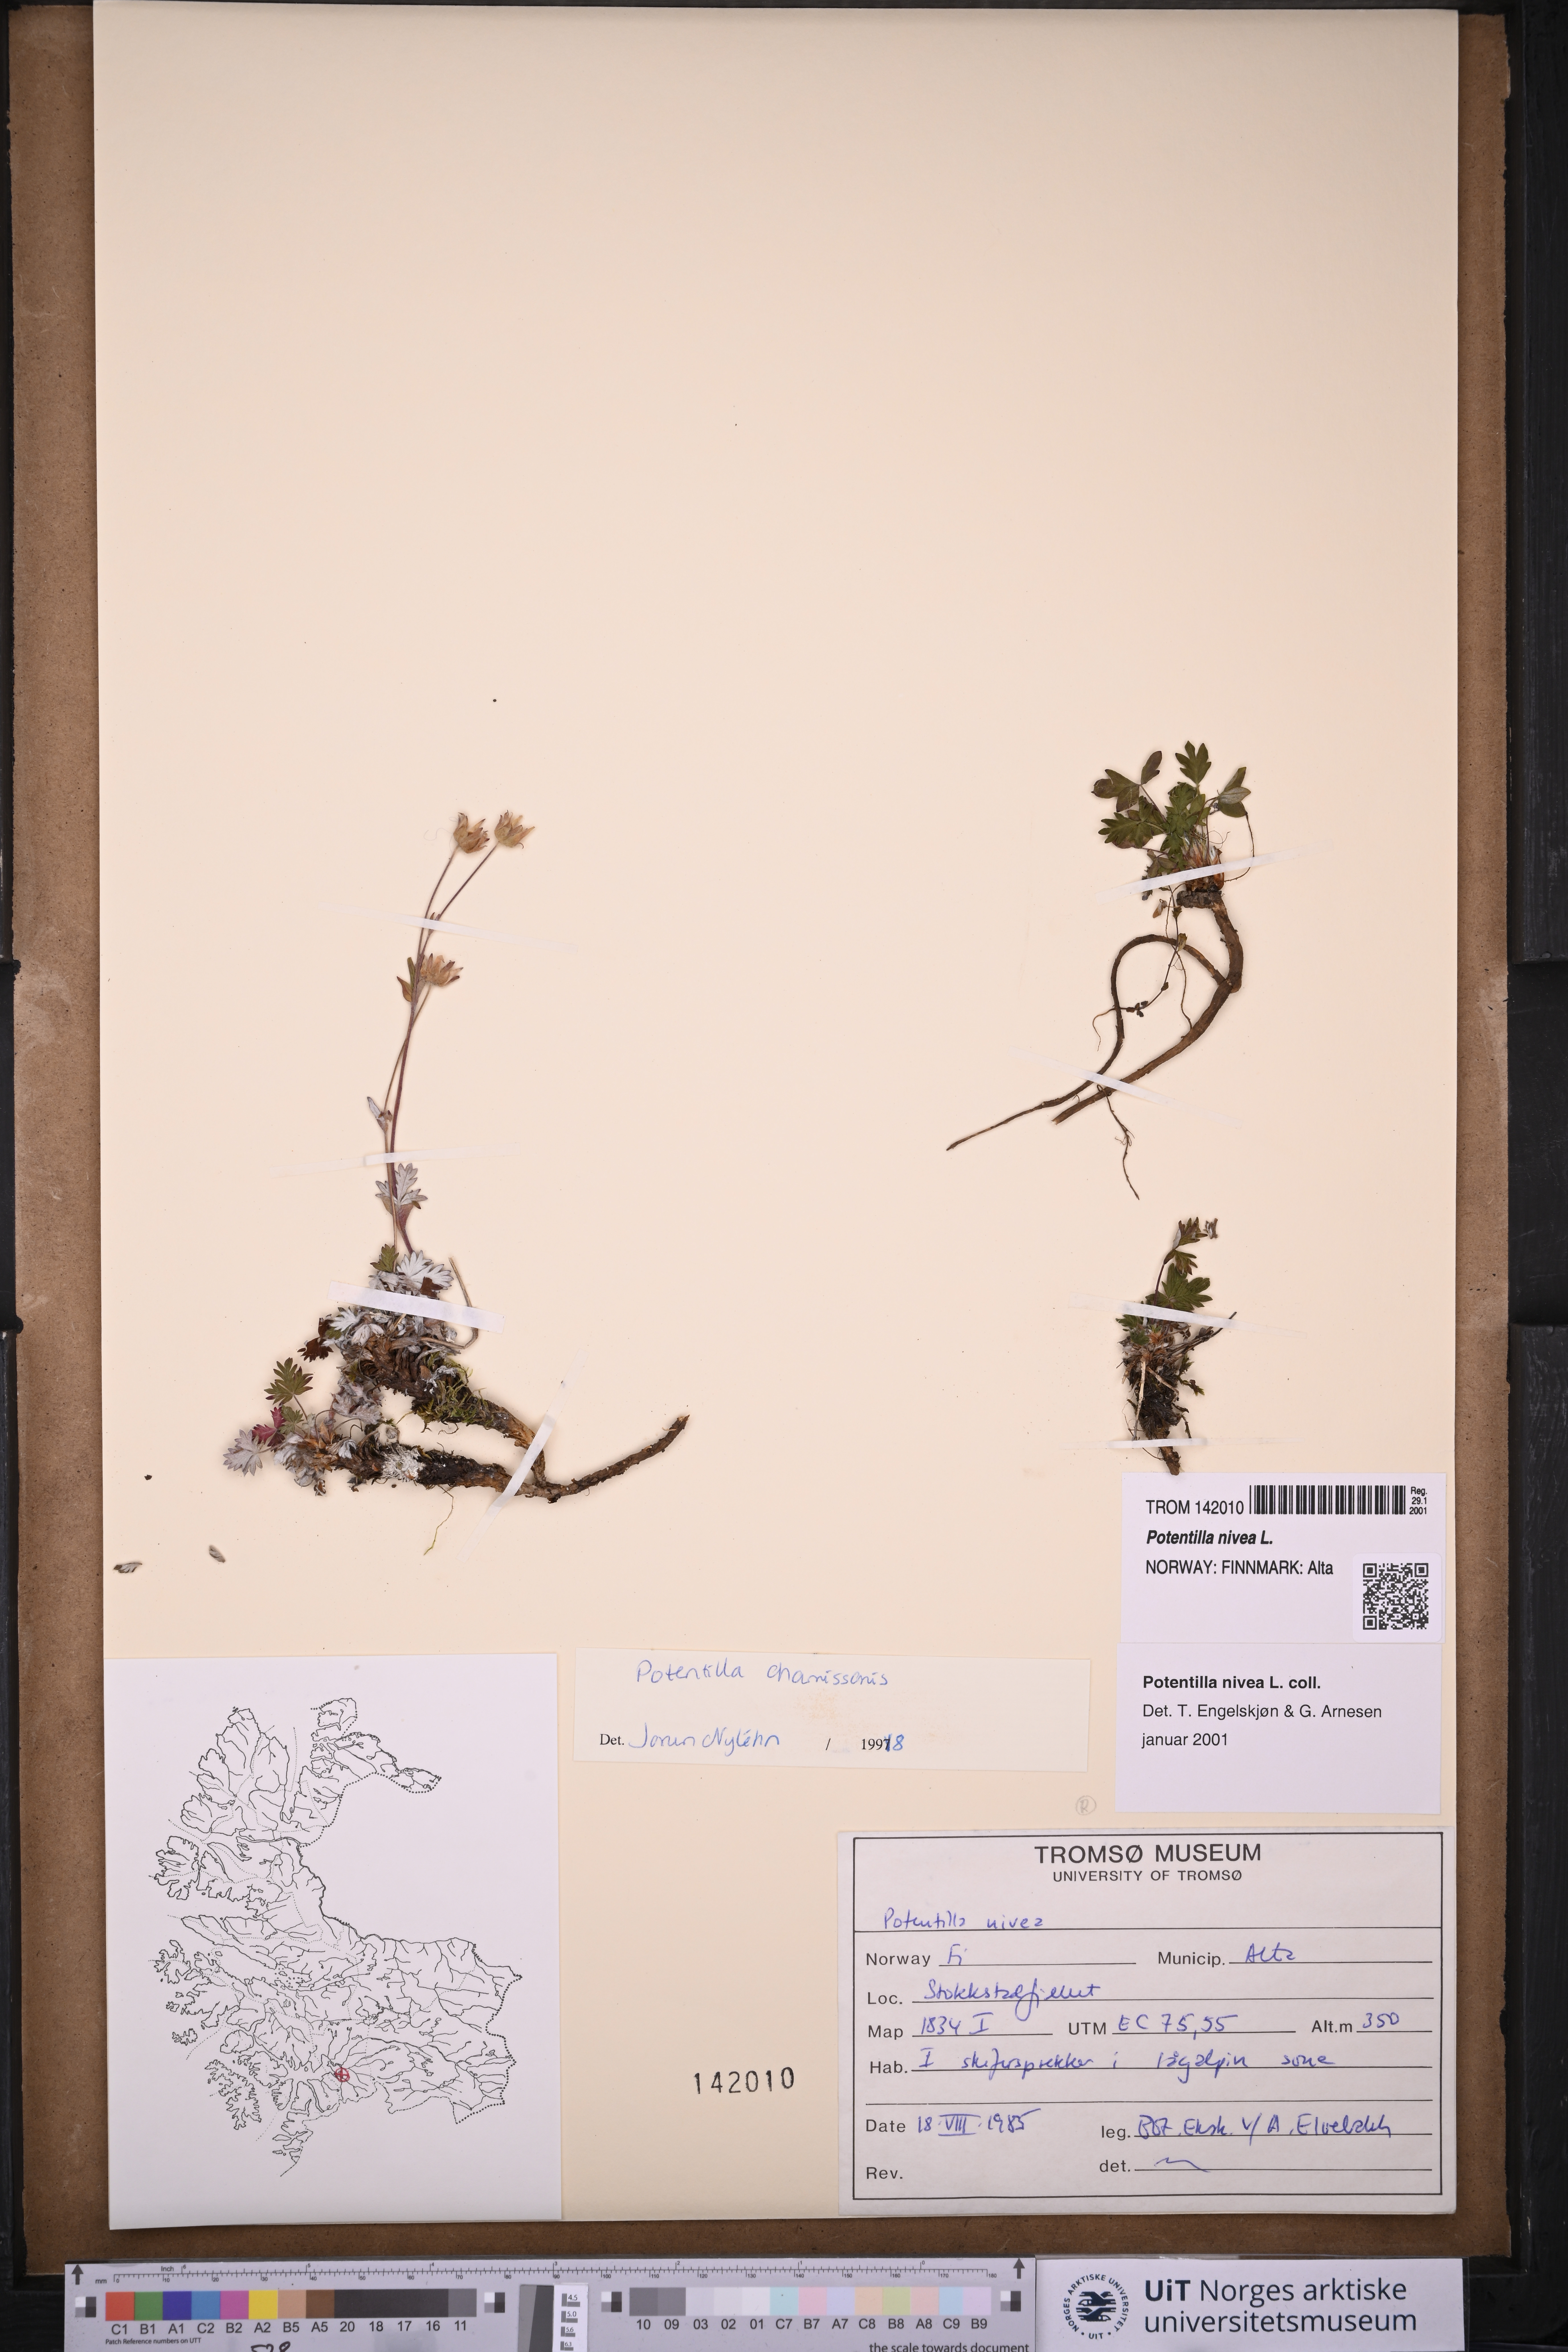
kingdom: Plantae
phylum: Tracheophyta
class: Magnoliopsida
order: Rosales
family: Rosaceae
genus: Potentilla
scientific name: Potentilla arenosa
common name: Bluff cinquefoil
